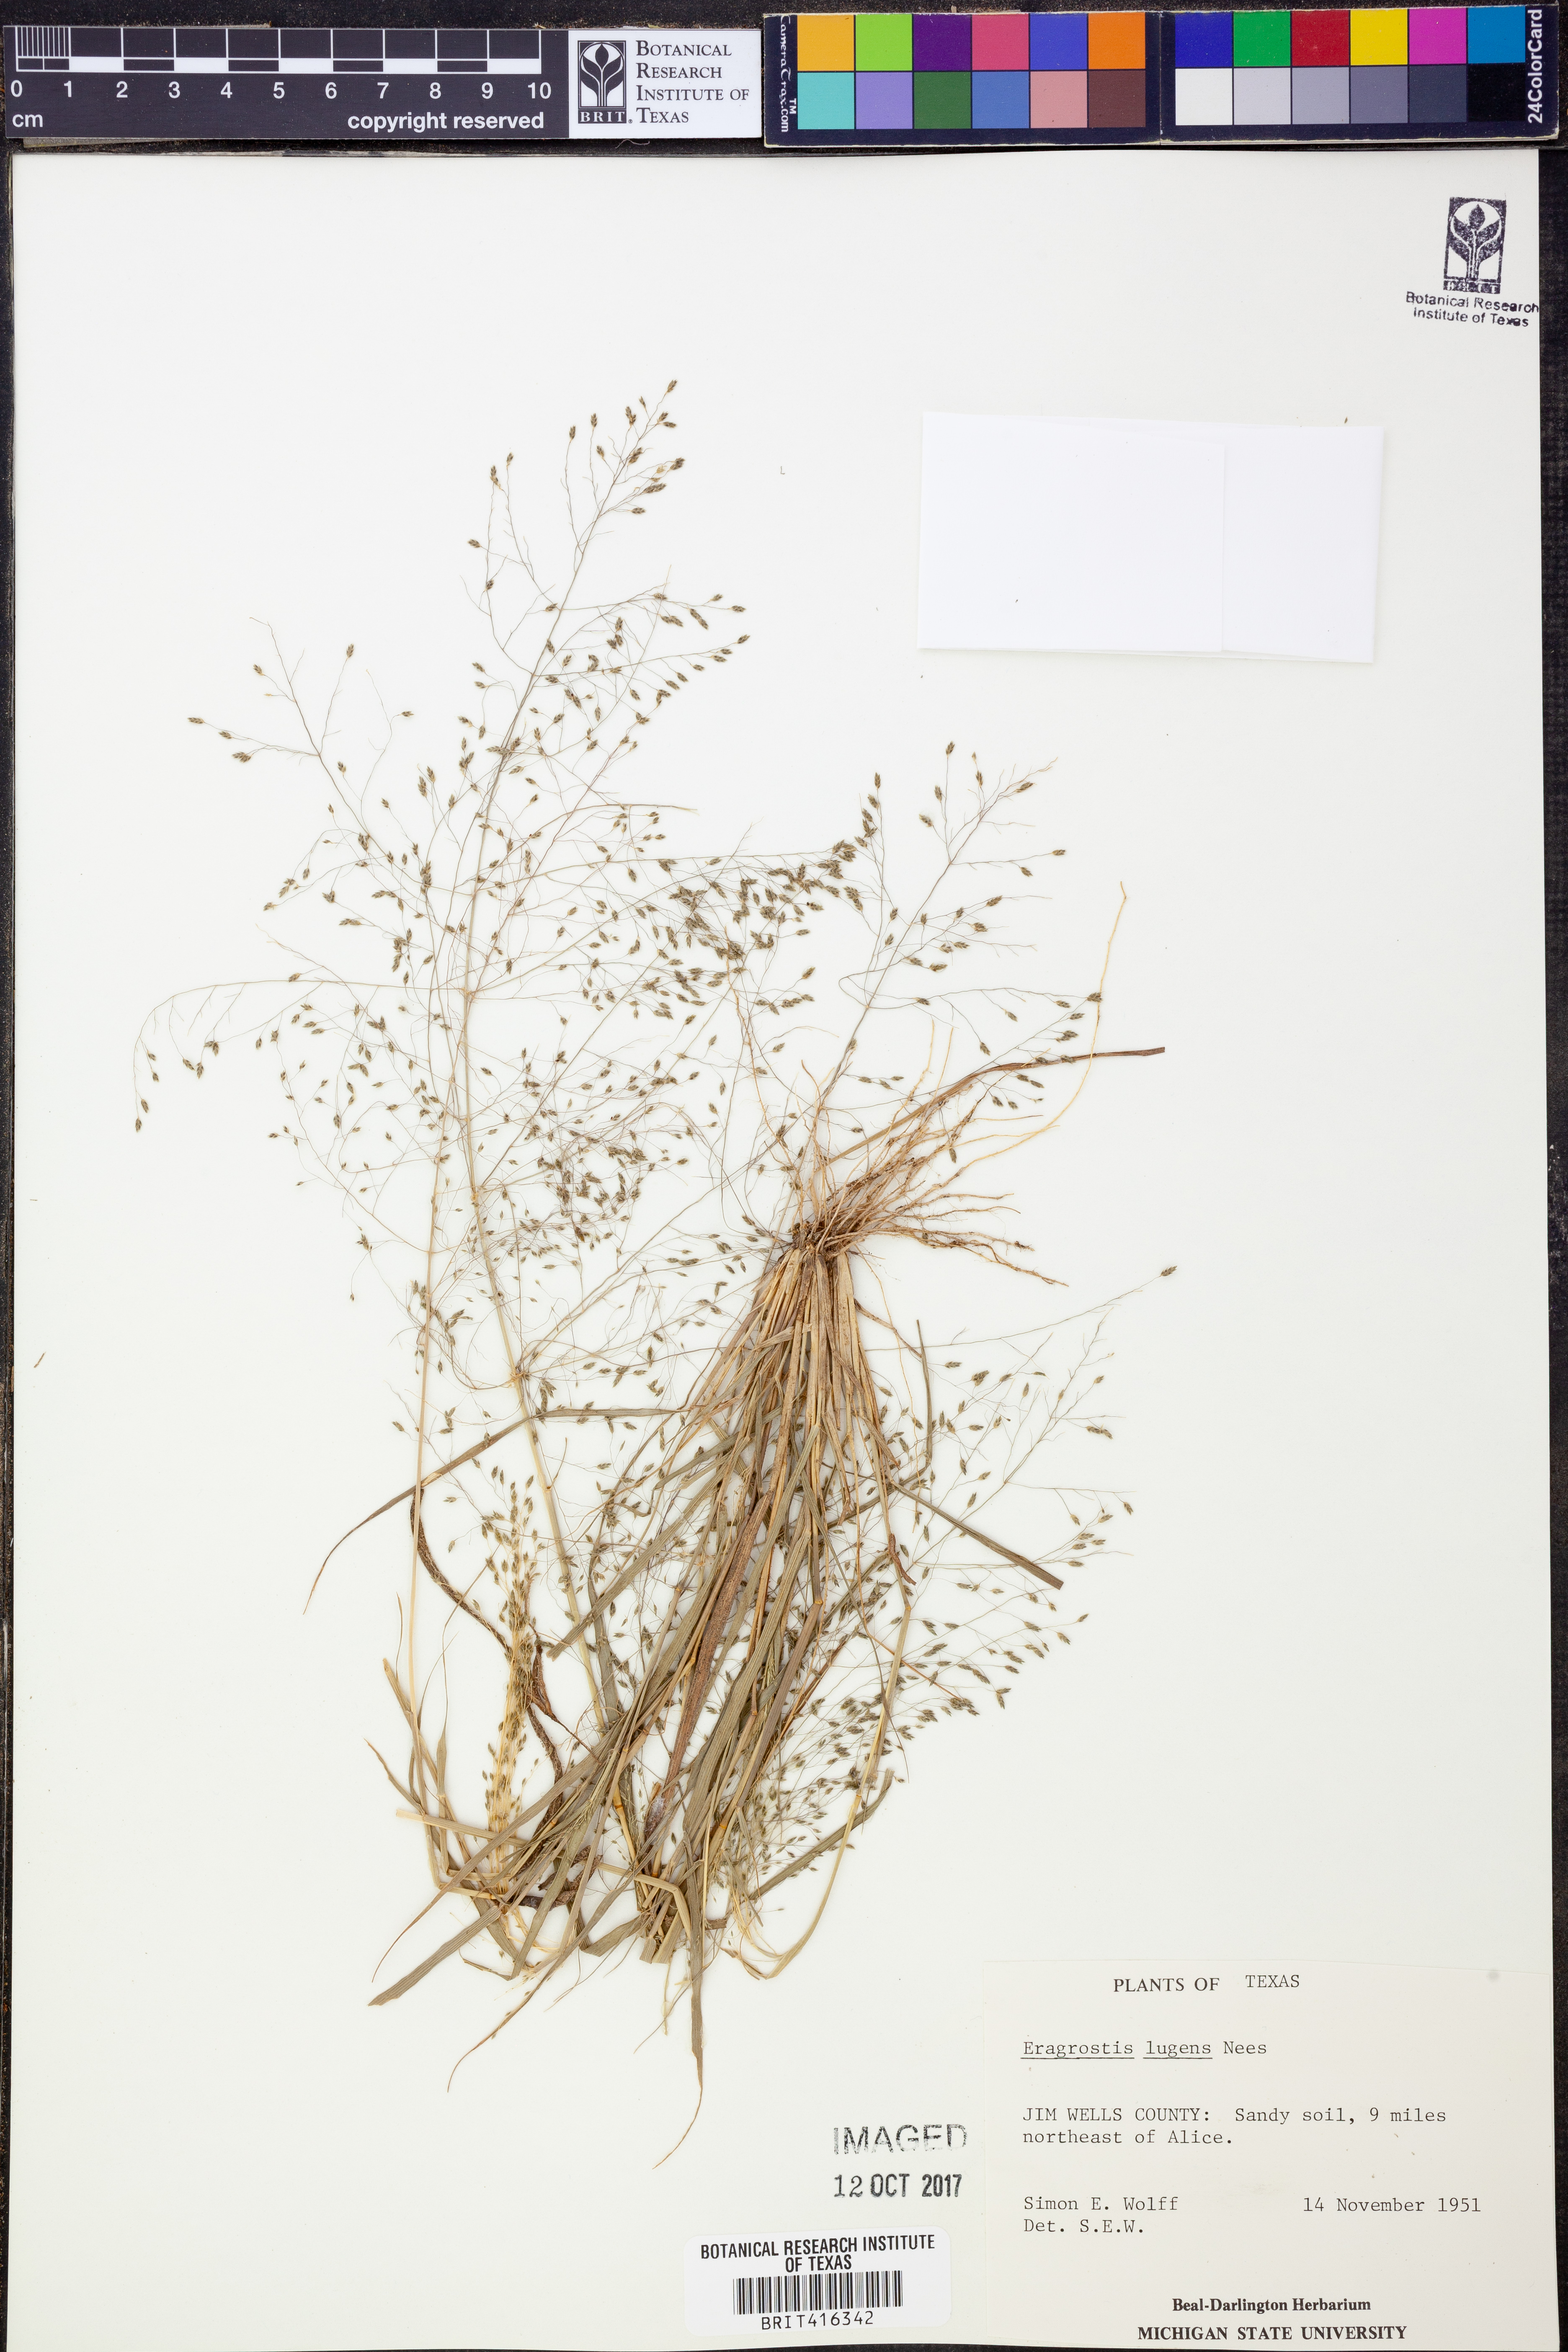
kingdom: Plantae
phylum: Tracheophyta
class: Liliopsida
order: Poales
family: Poaceae
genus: Eragrostis
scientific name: Eragrostis capillaris
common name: Hair-like lovegrass
